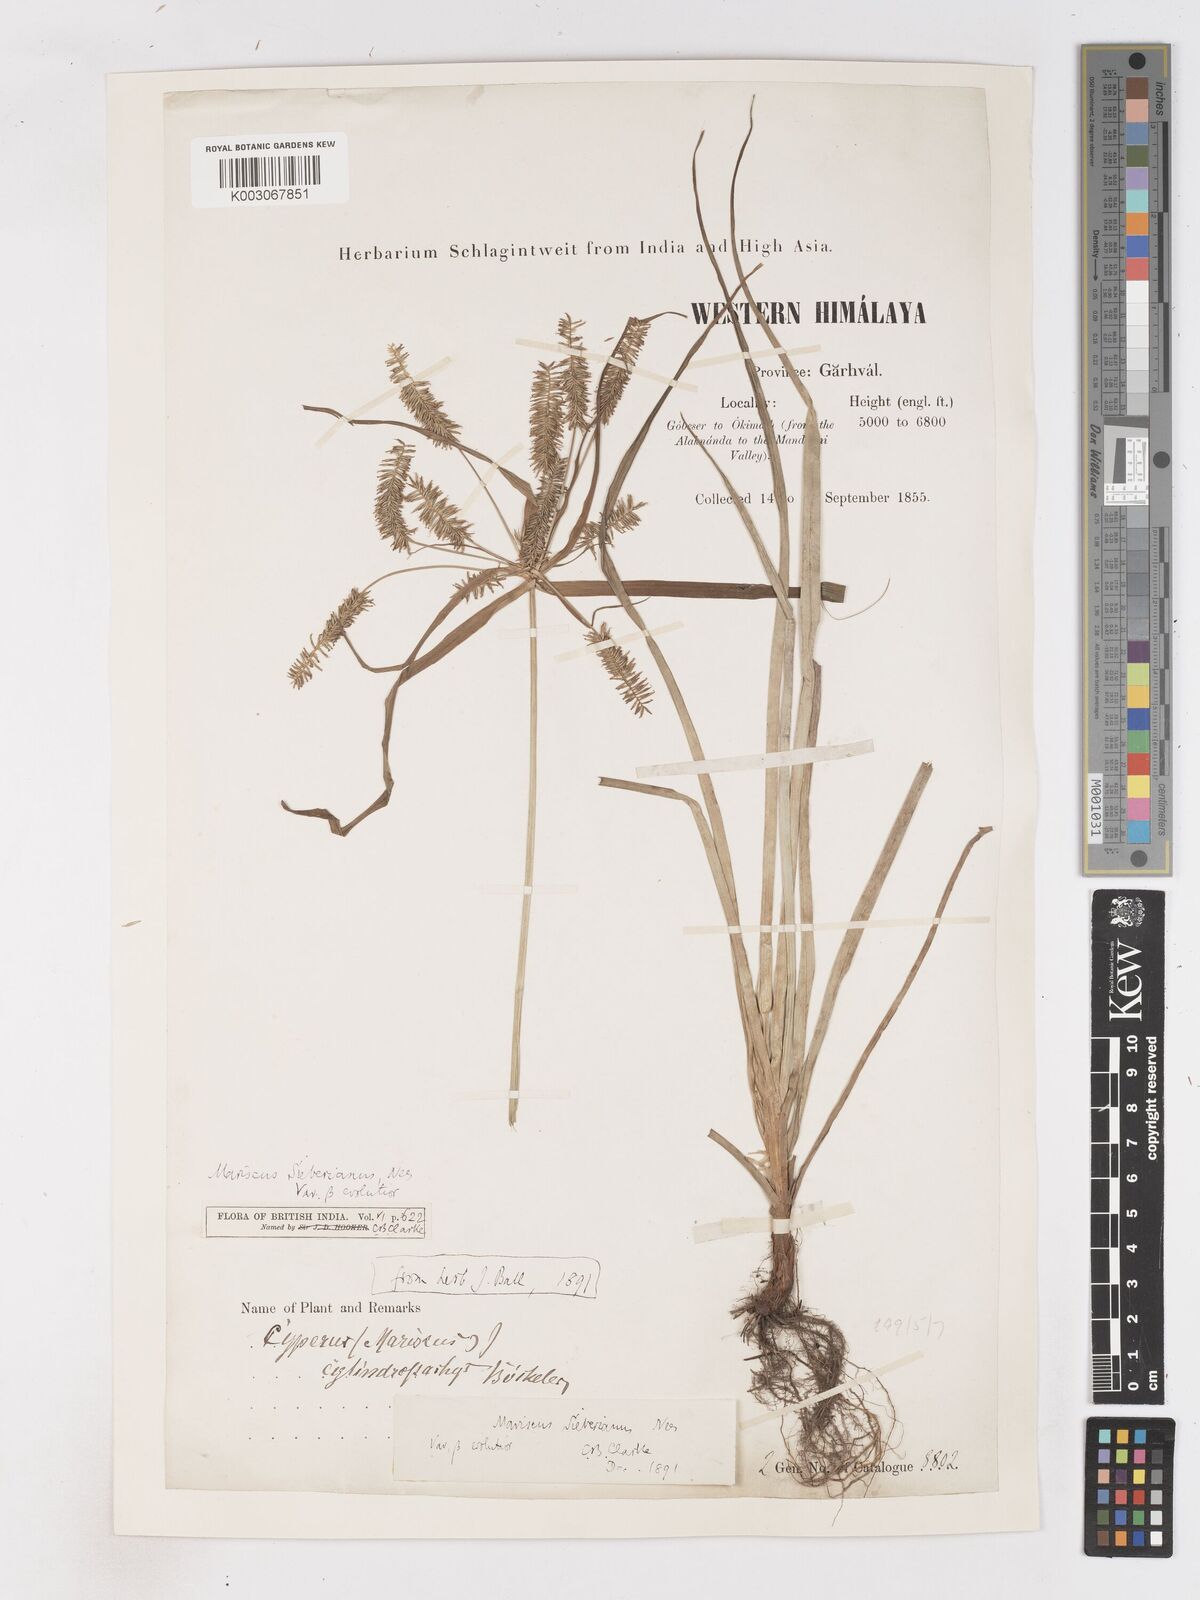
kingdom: Plantae
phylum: Tracheophyta
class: Liliopsida
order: Poales
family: Cyperaceae
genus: Cyperus
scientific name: Cyperus cyperoides
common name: Pacific island flat sedge
